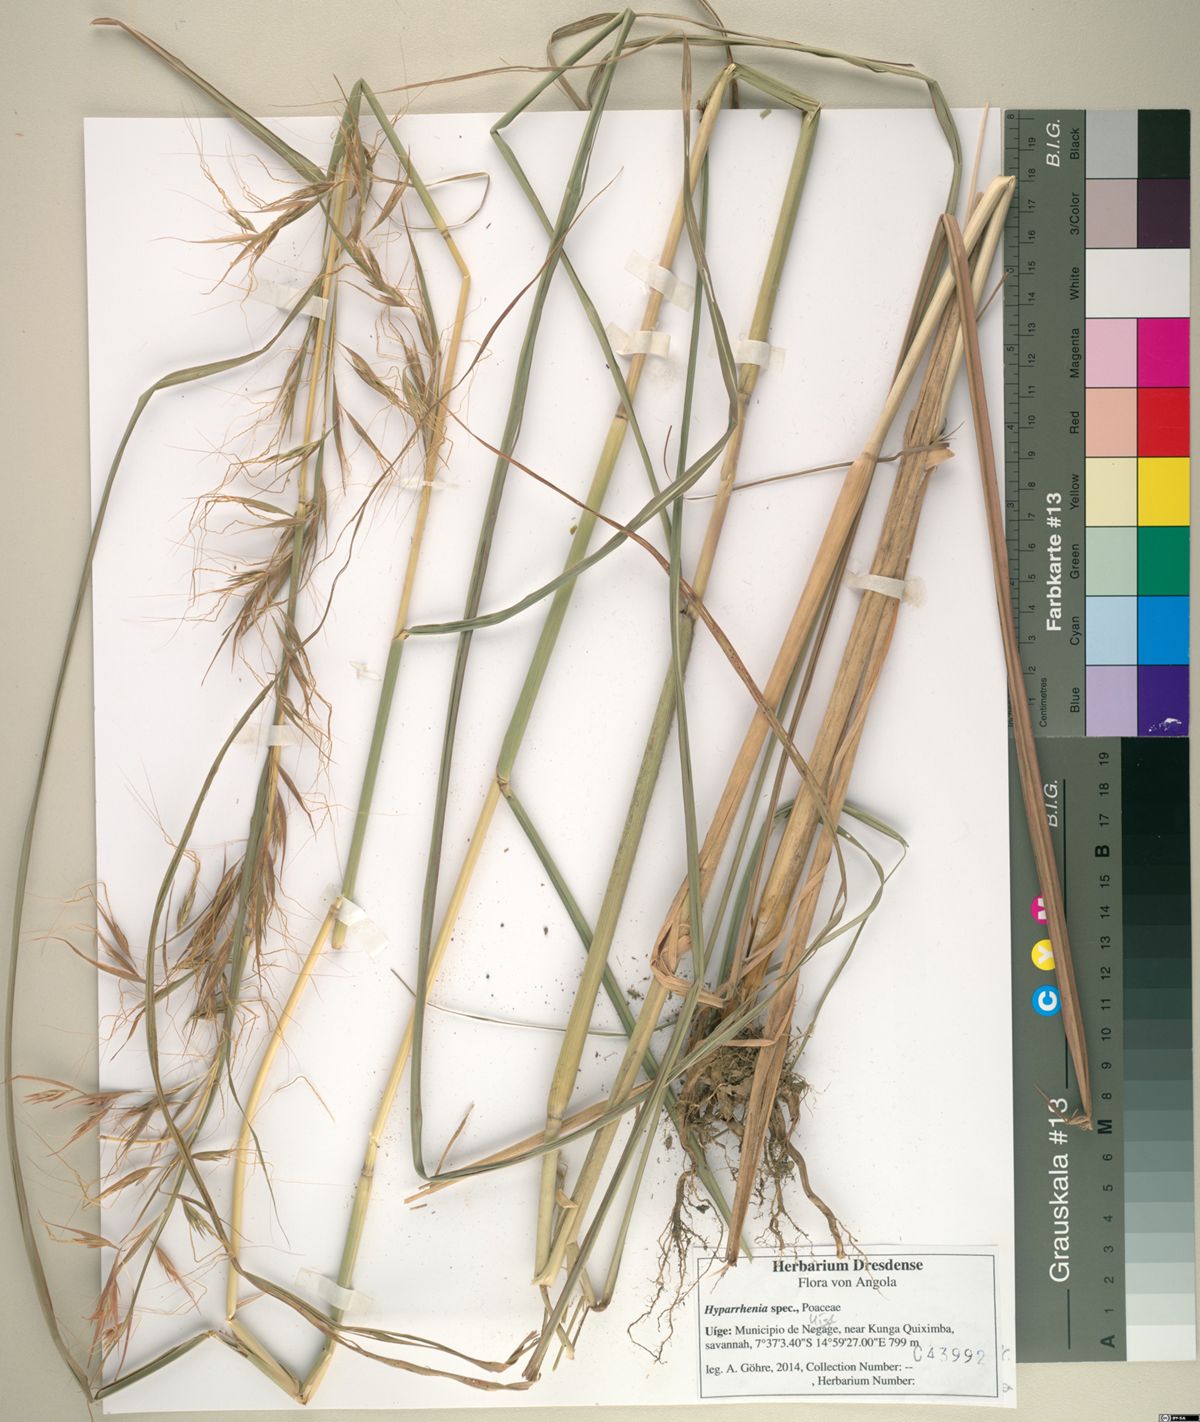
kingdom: Plantae
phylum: Tracheophyta
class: Liliopsida
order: Poales
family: Poaceae
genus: Hyparrhenia
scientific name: Hyparrhenia diplandra
